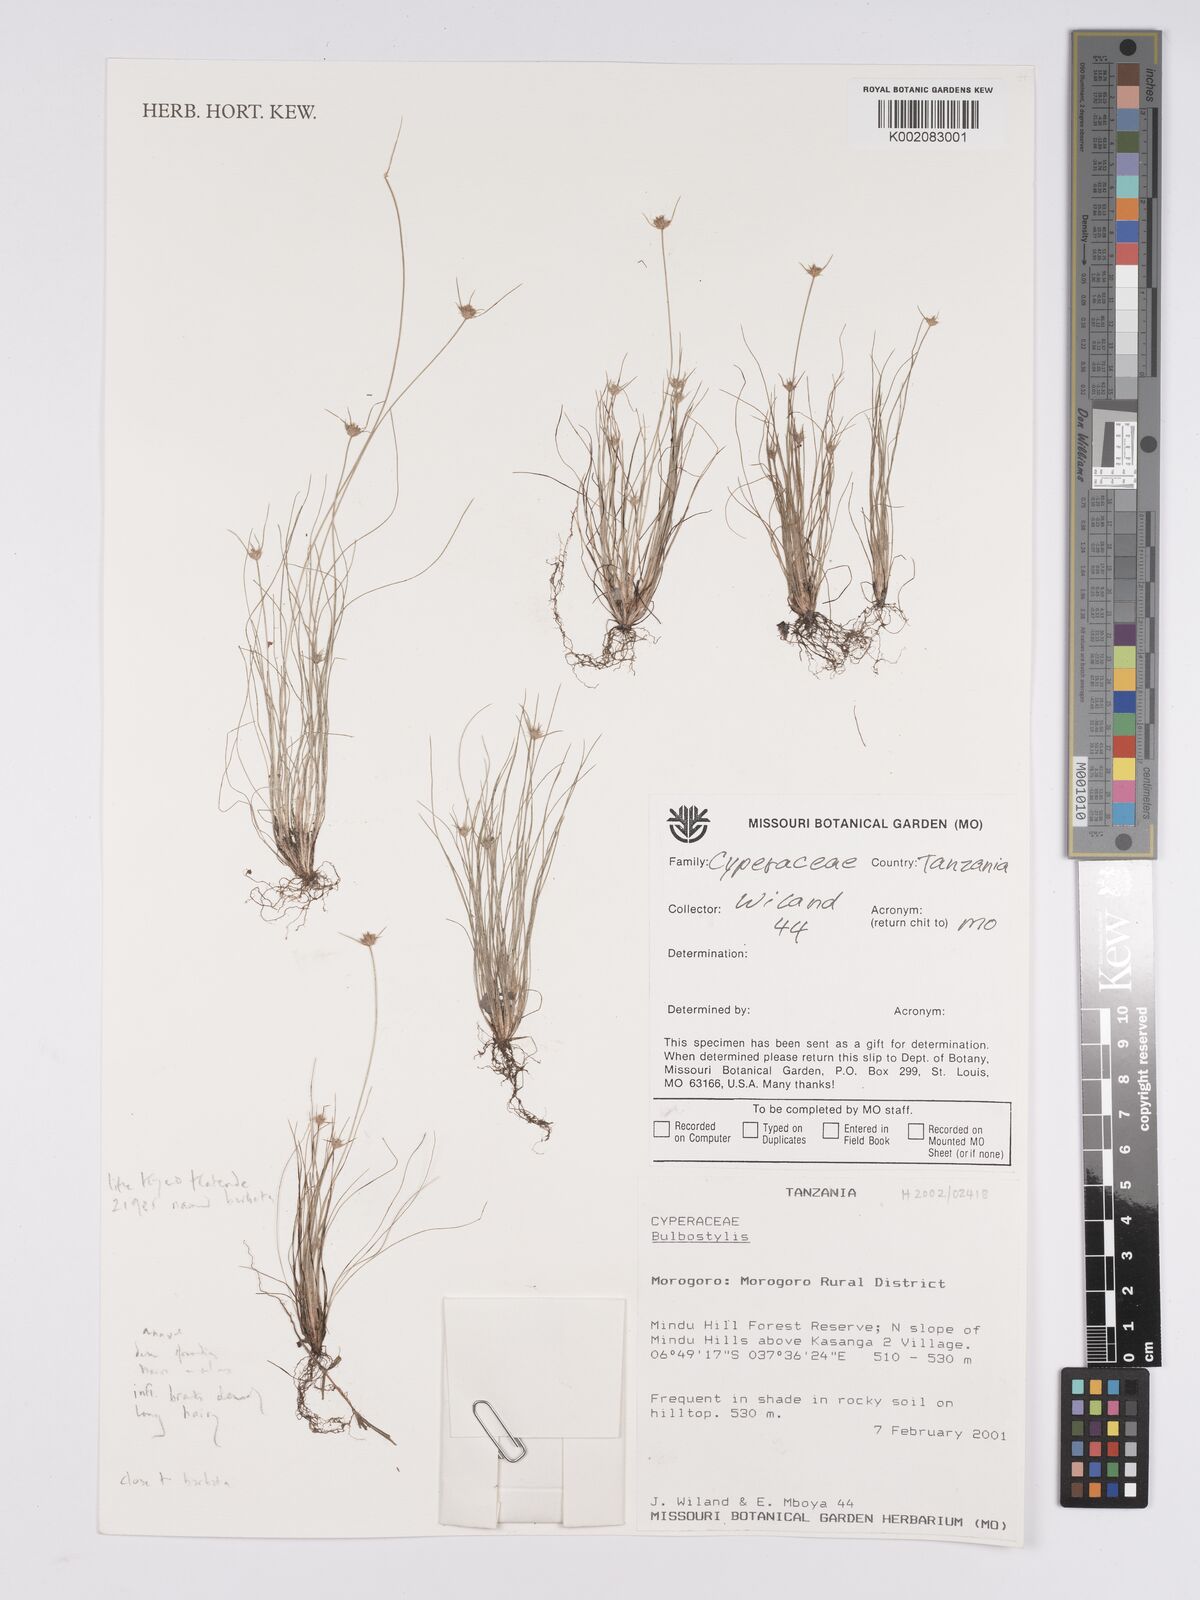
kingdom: Plantae
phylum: Tracheophyta
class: Liliopsida
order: Poales
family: Cyperaceae
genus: Bulbostylis
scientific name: Bulbostylis hispidula
